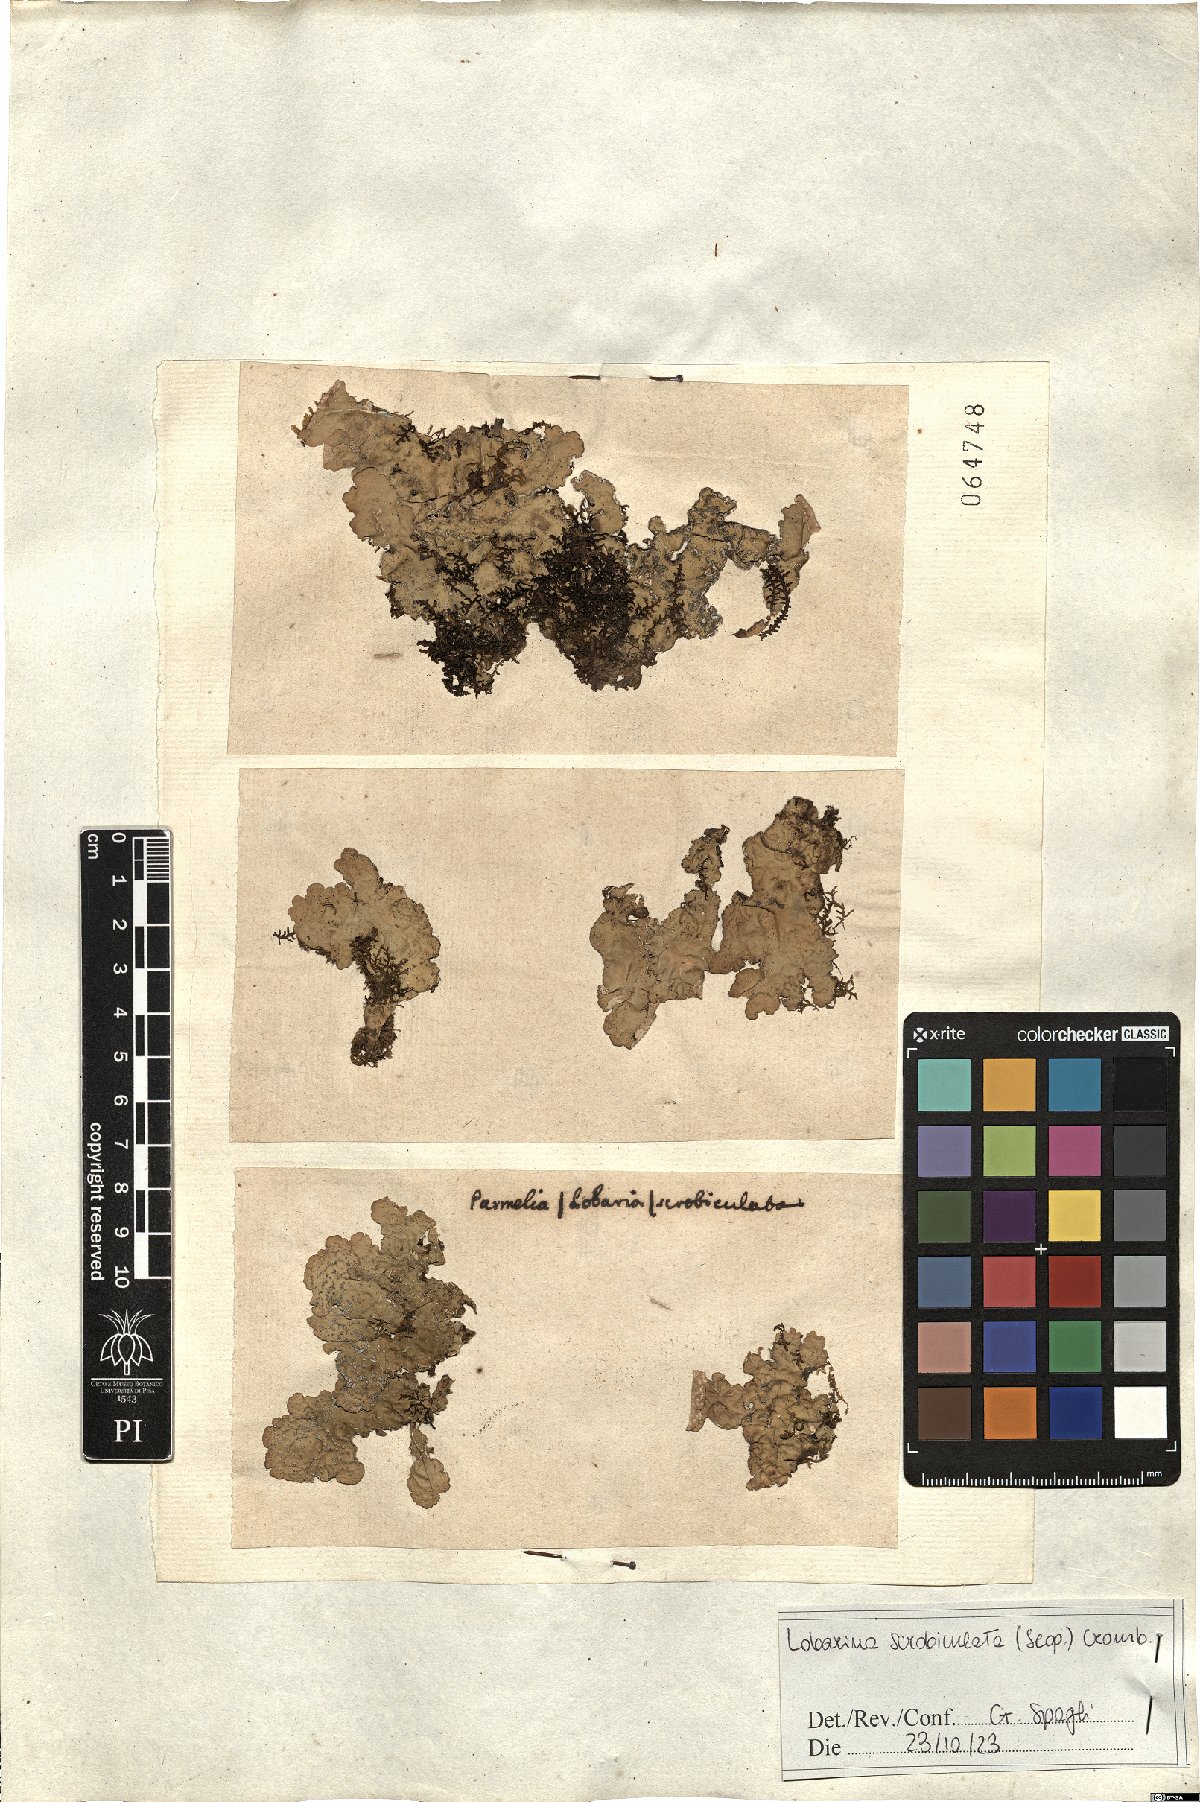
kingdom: Fungi
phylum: Ascomycota
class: Lecanoromycetes
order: Peltigerales
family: Lobariaceae
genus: Lobarina
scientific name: Lobarina scrobiculata
